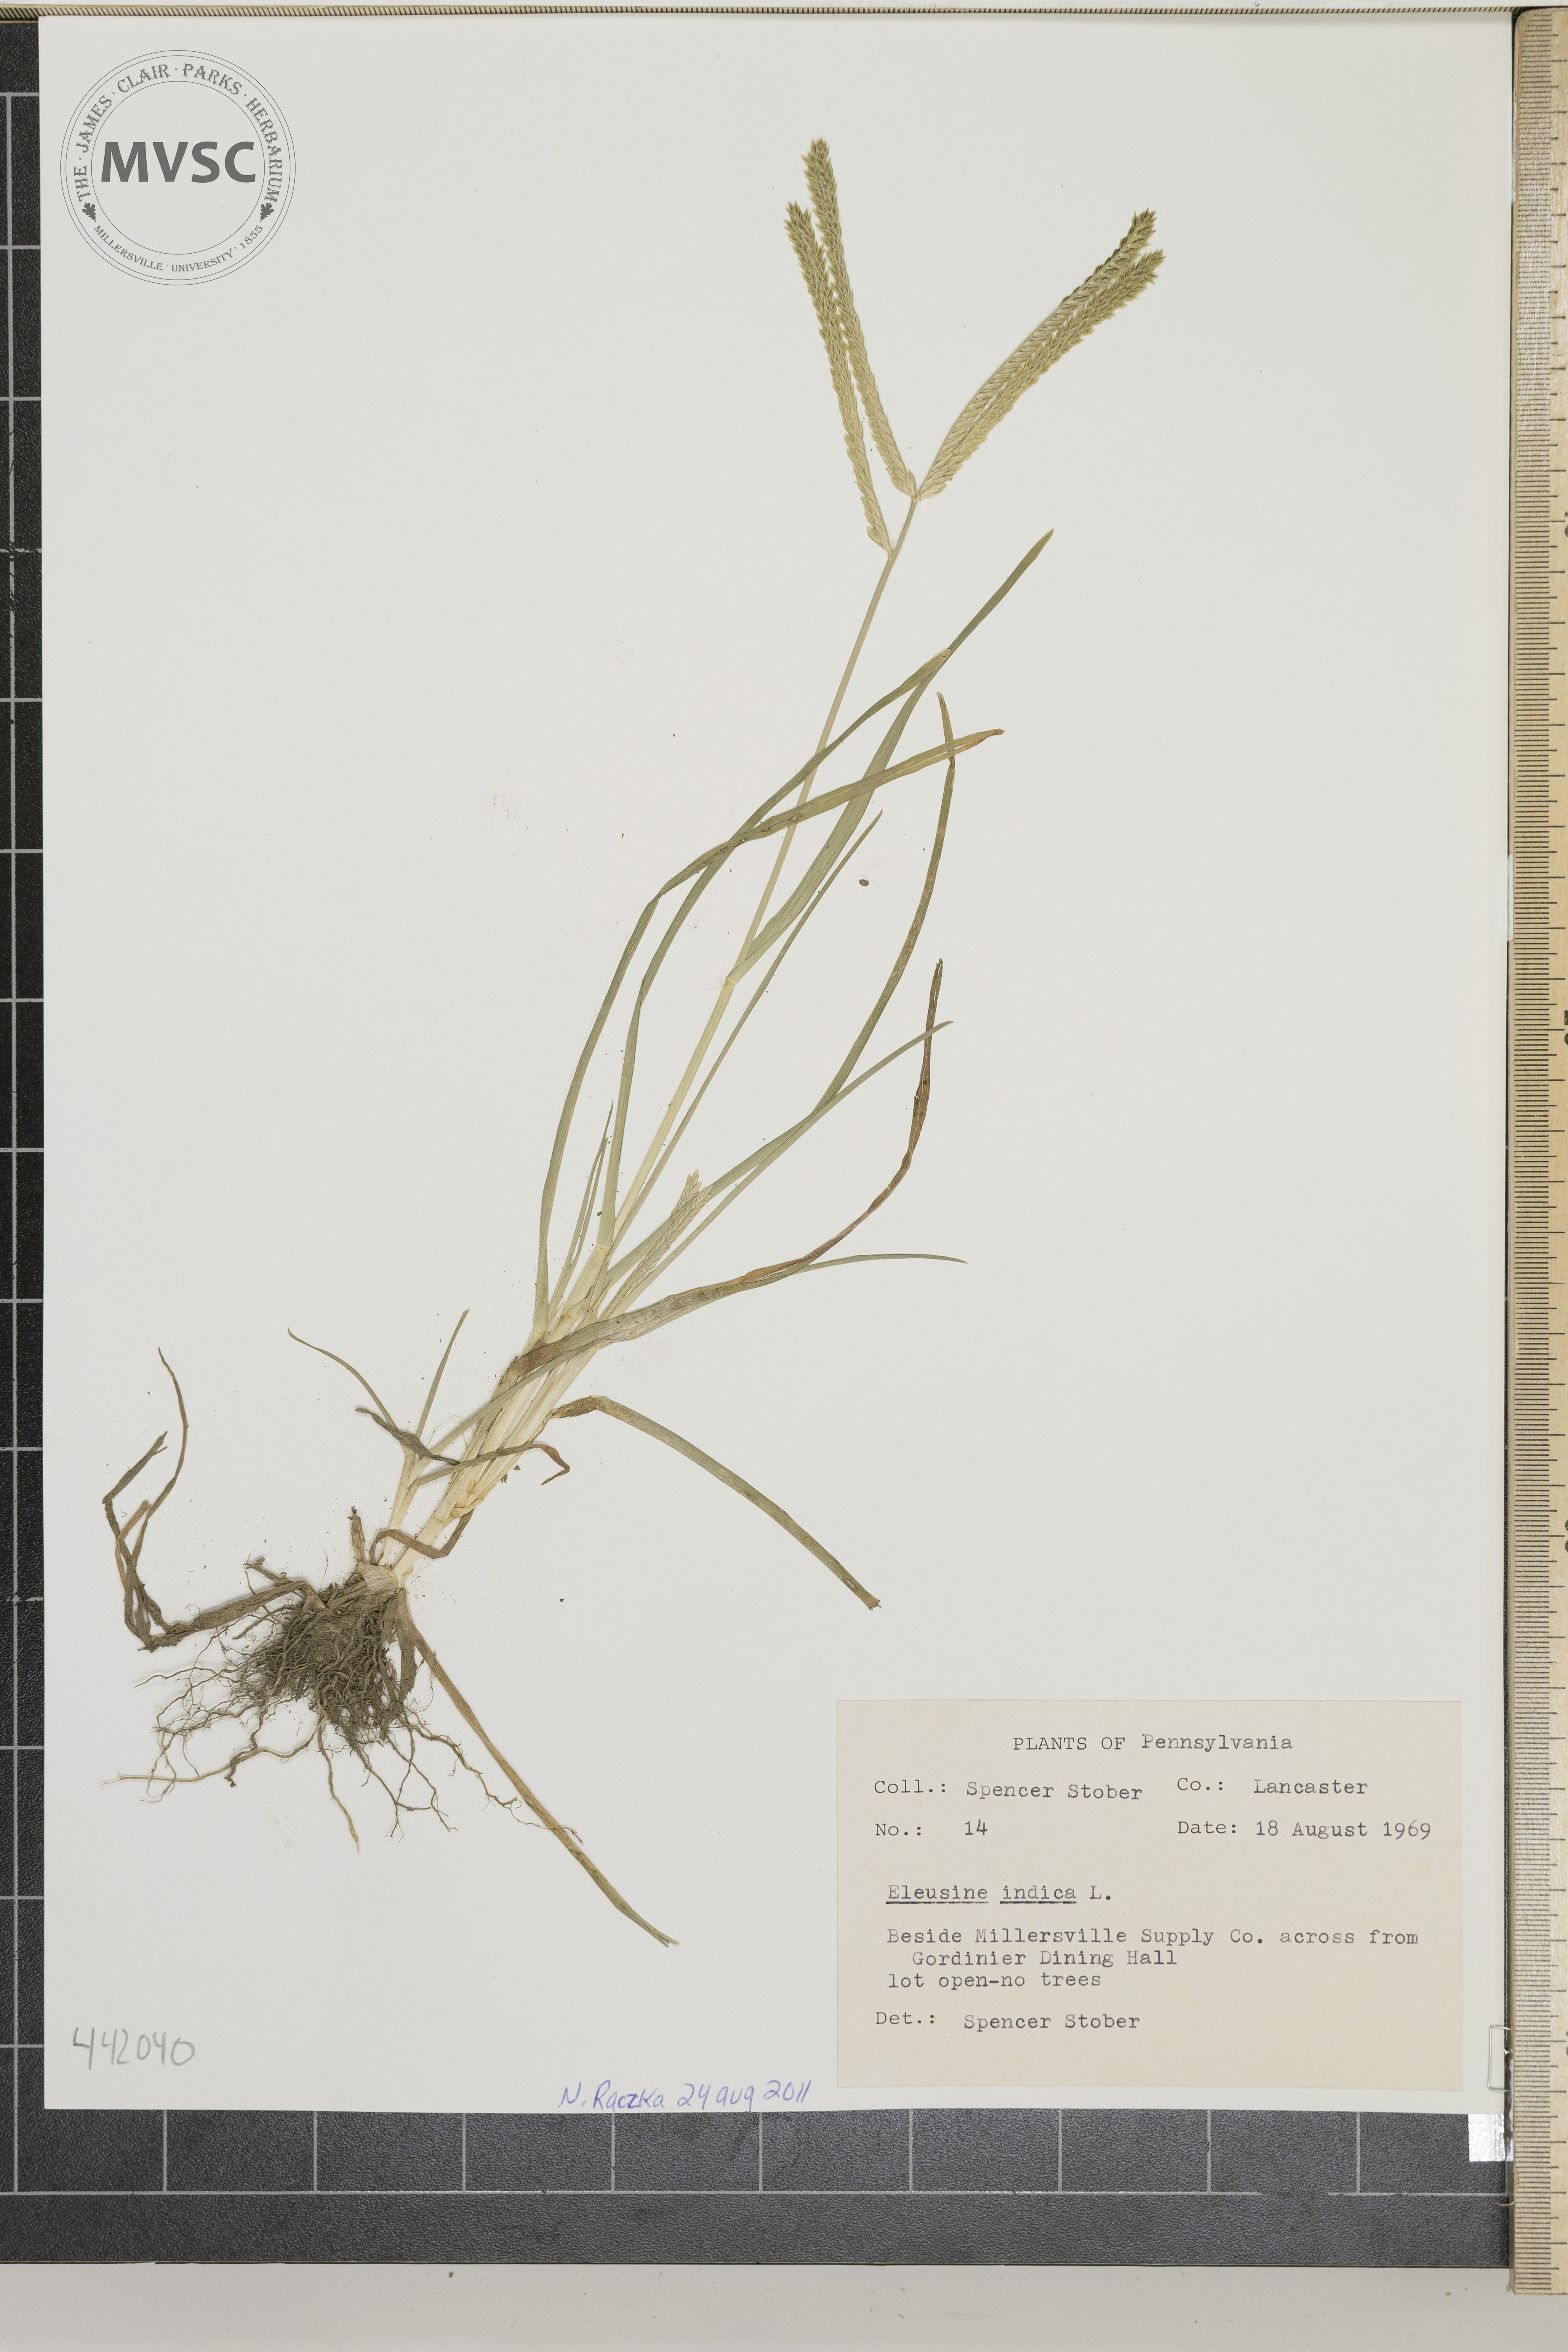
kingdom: Plantae
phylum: Tracheophyta
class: Liliopsida
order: Poales
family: Poaceae
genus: Eleusine
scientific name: Eleusine indica
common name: Yard-grass
